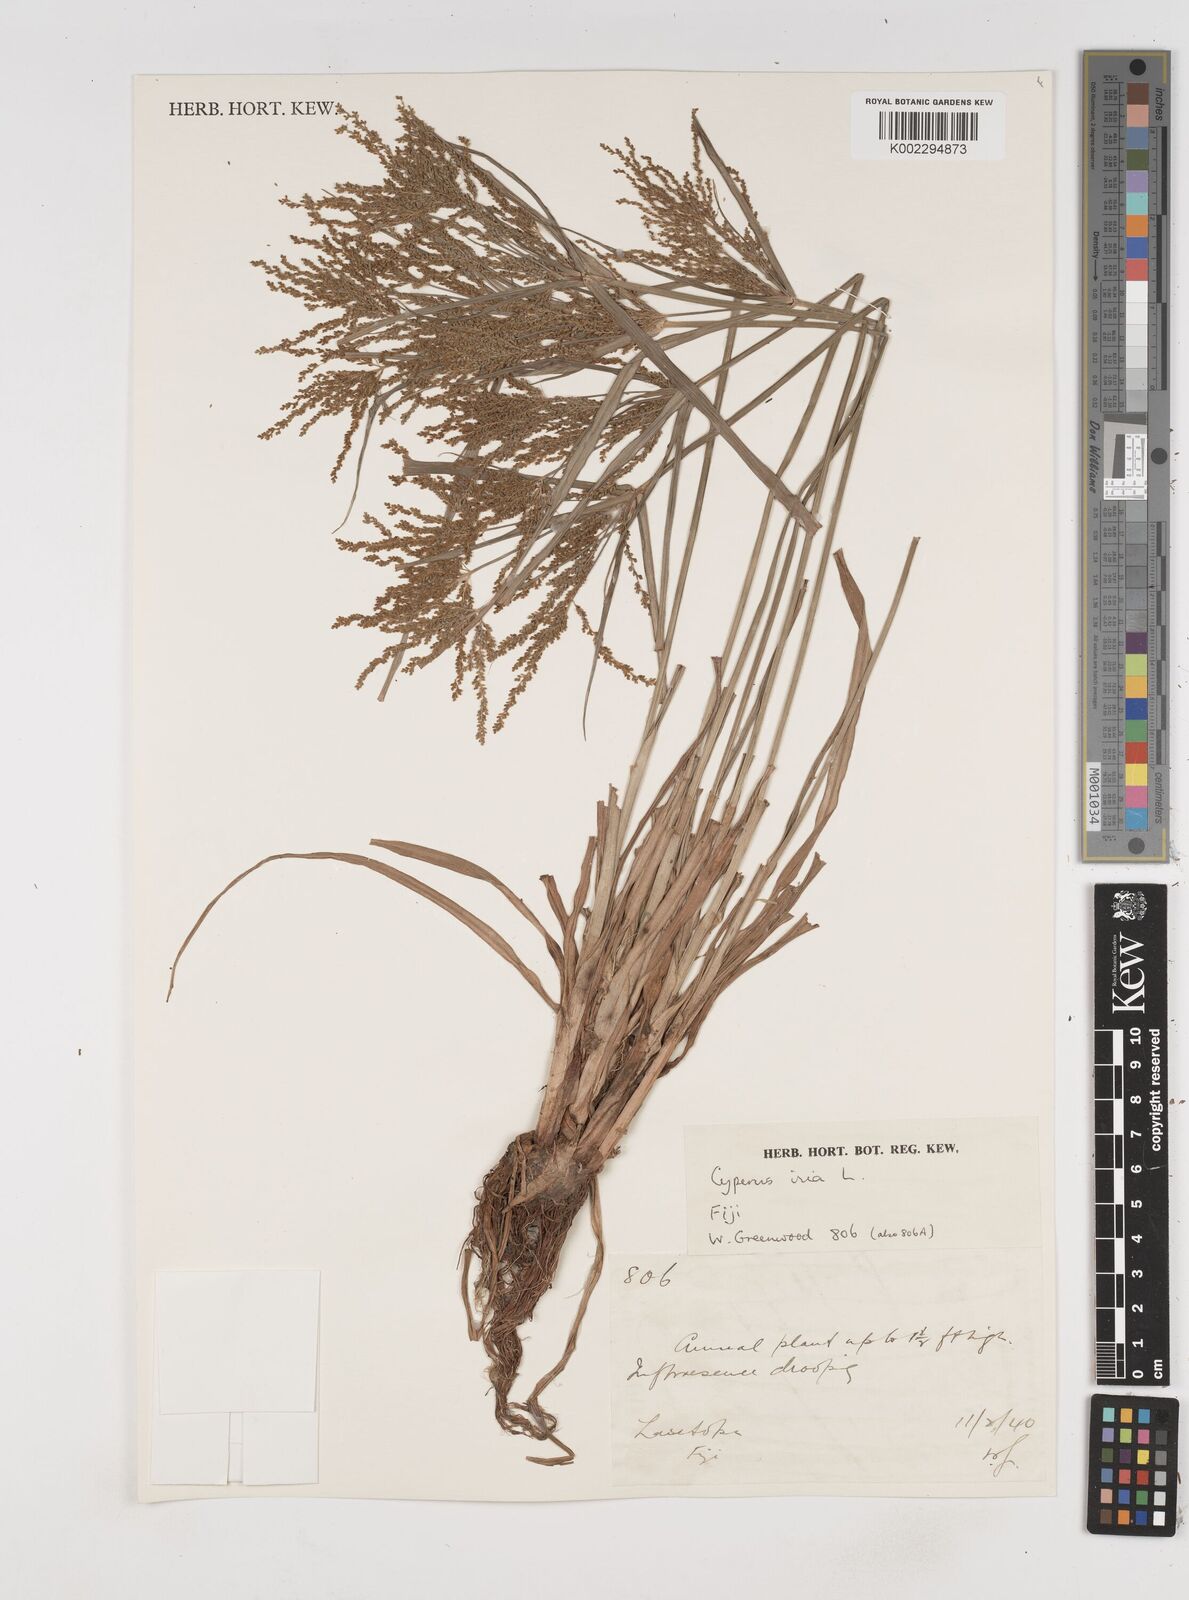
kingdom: Plantae
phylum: Tracheophyta
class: Liliopsida
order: Poales
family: Cyperaceae
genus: Cyperus
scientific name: Cyperus iria
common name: Ricefield flatsedge
